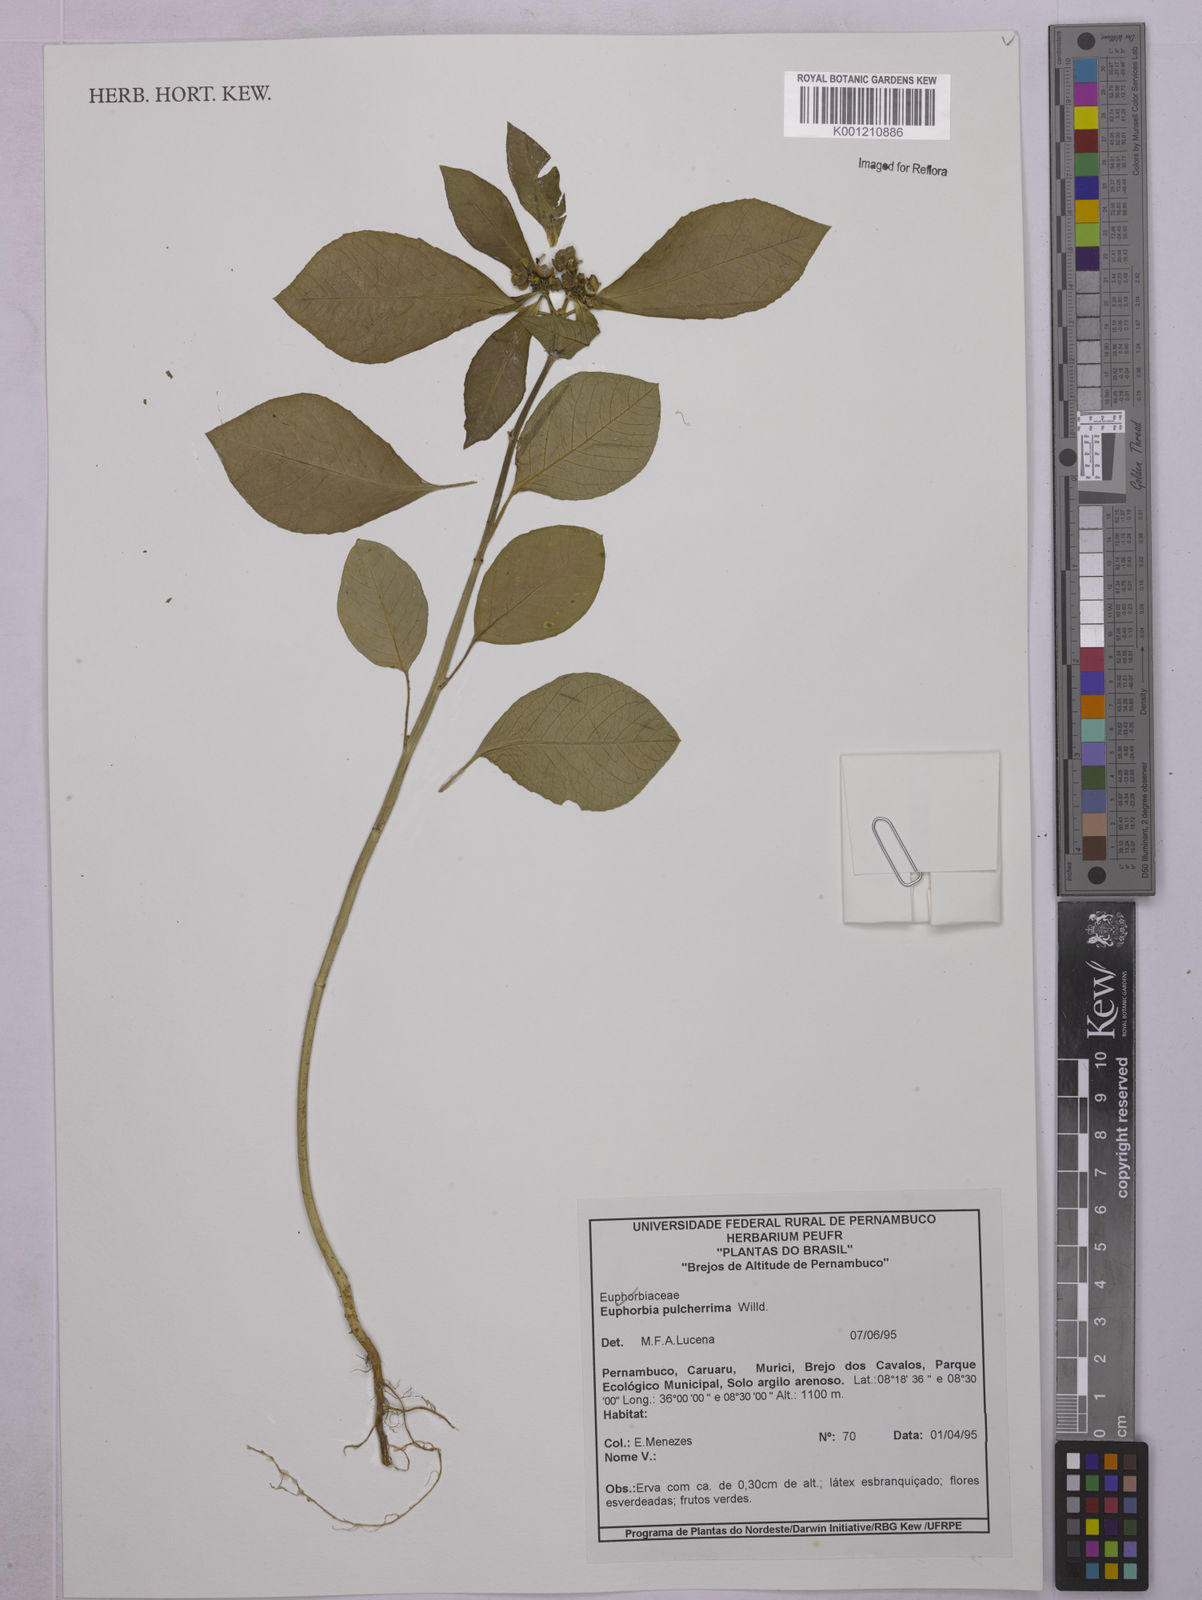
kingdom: Plantae
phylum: Tracheophyta
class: Magnoliopsida
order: Malpighiales
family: Euphorbiaceae
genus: Euphorbia
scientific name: Euphorbia
